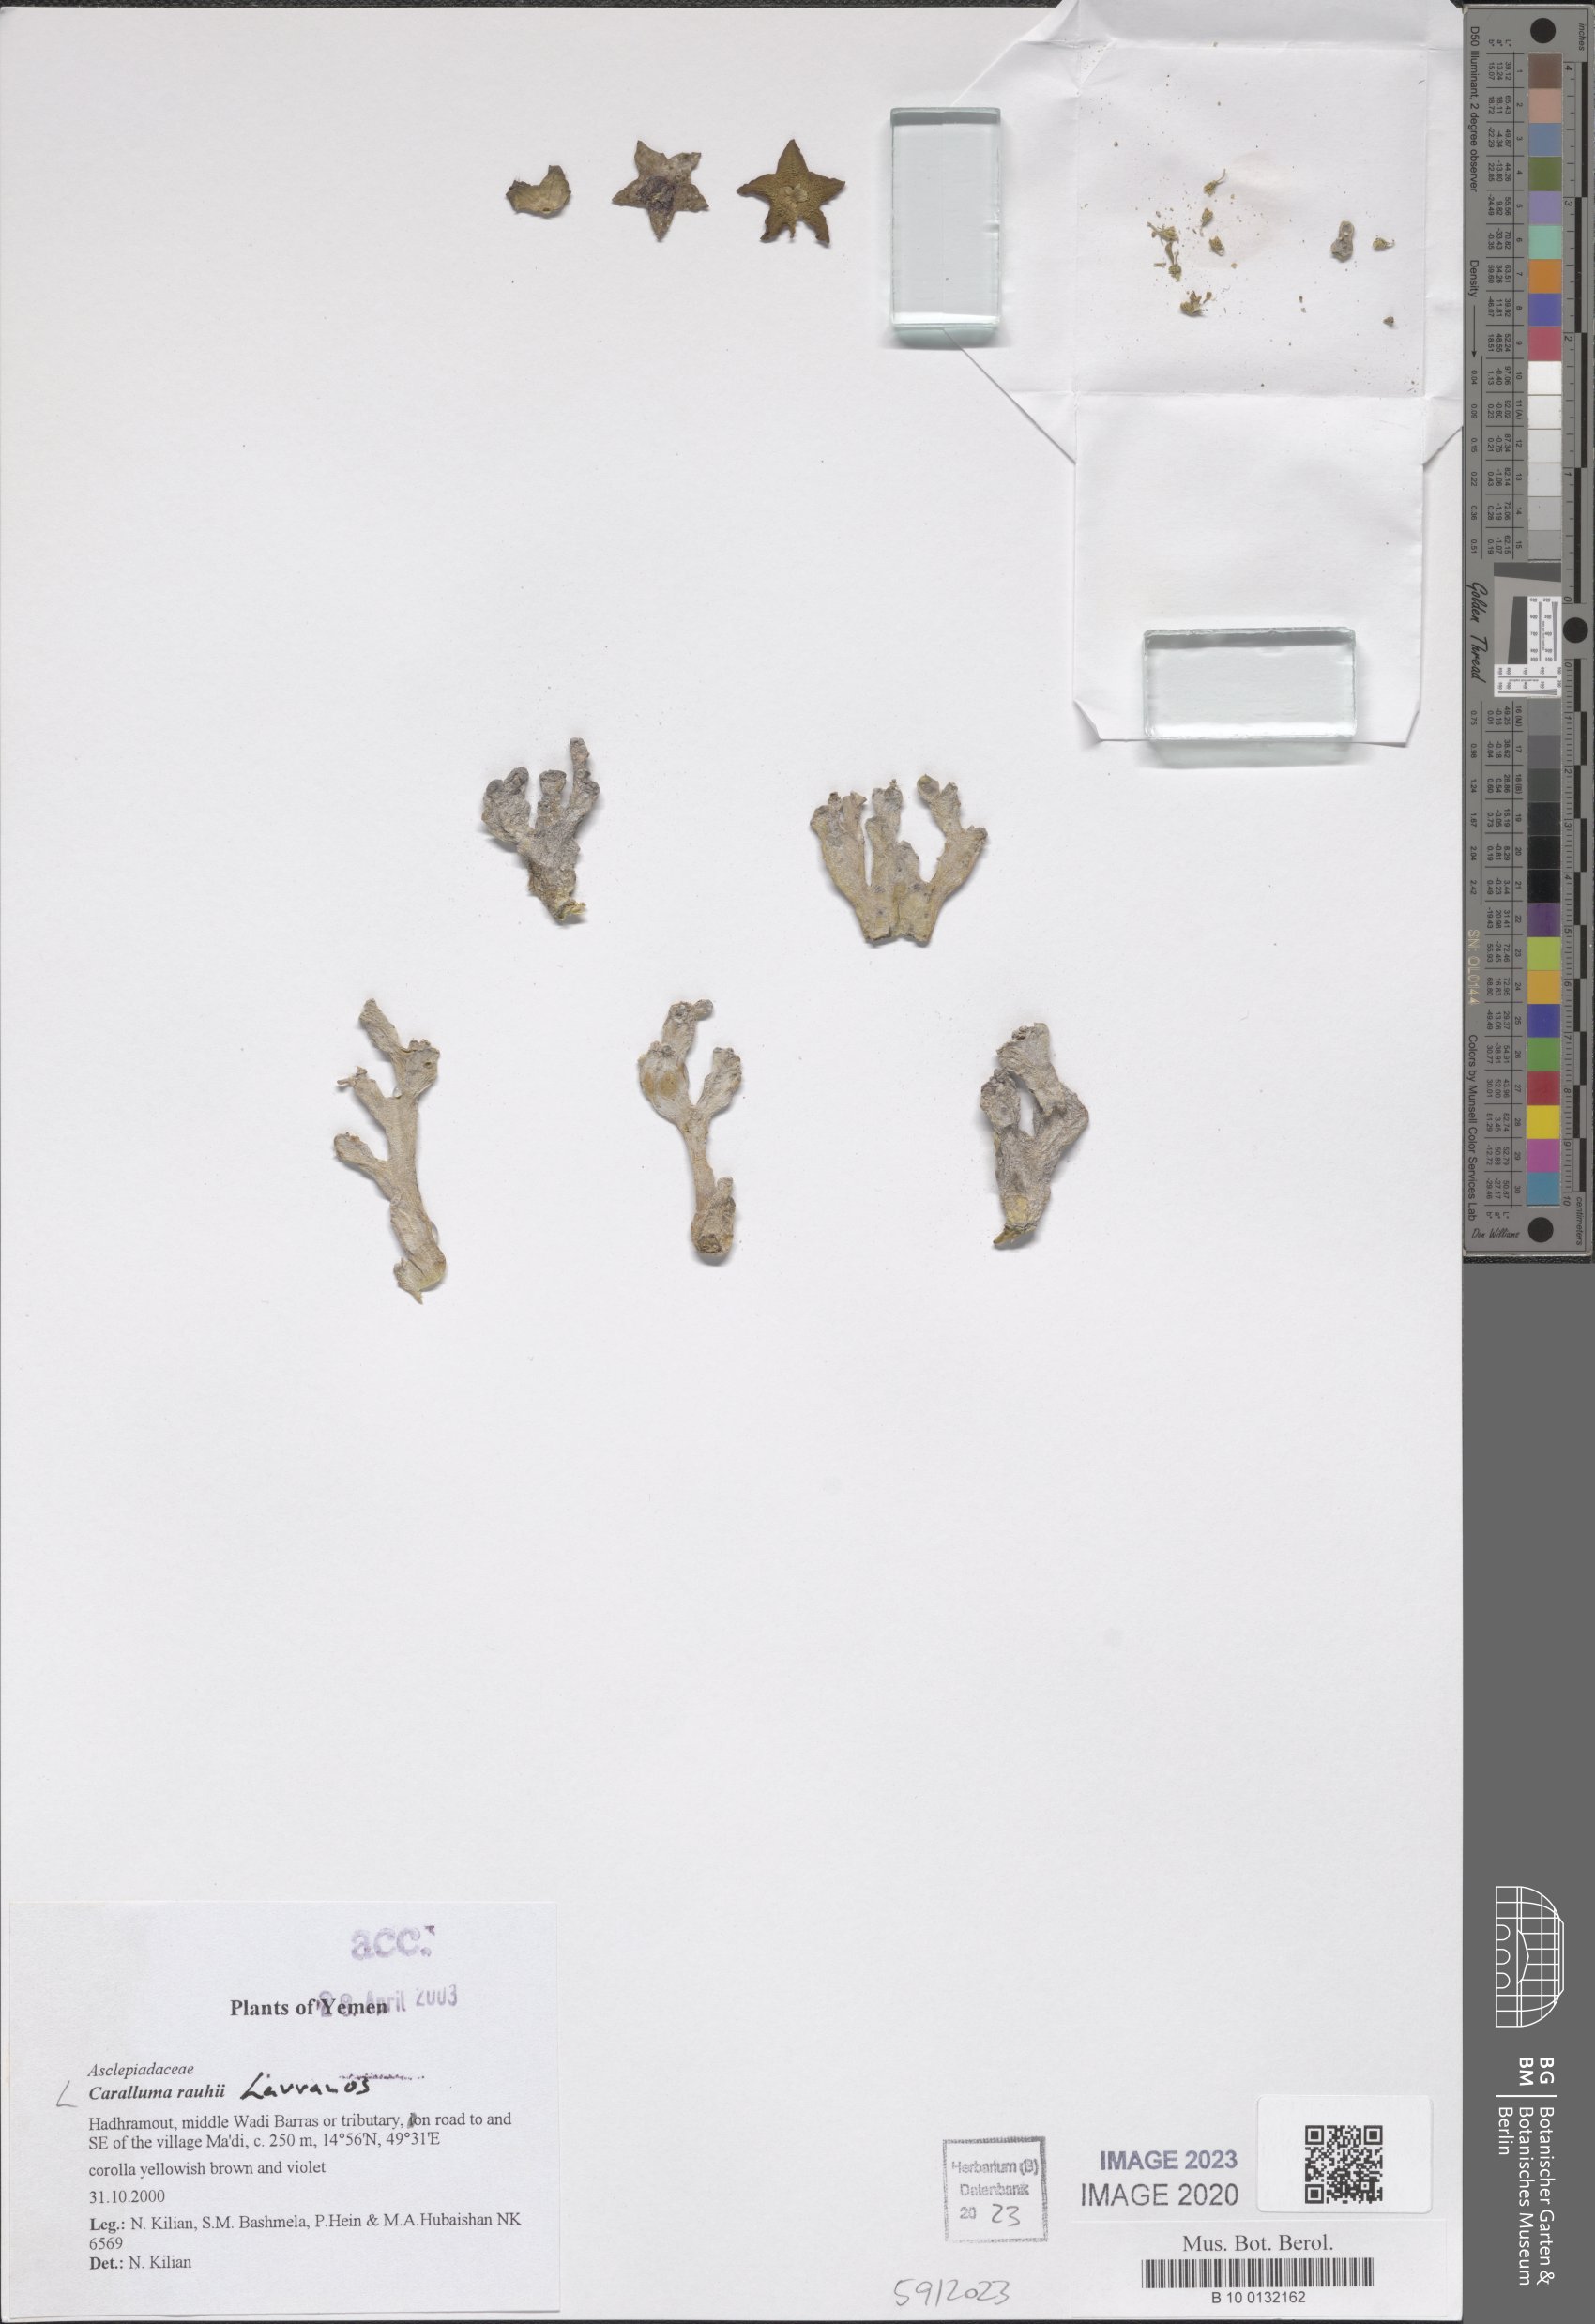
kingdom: Plantae
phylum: Tracheophyta
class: Magnoliopsida
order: Gentianales
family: Apocynaceae
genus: Ceropegia
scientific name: Ceropegia adenensis
